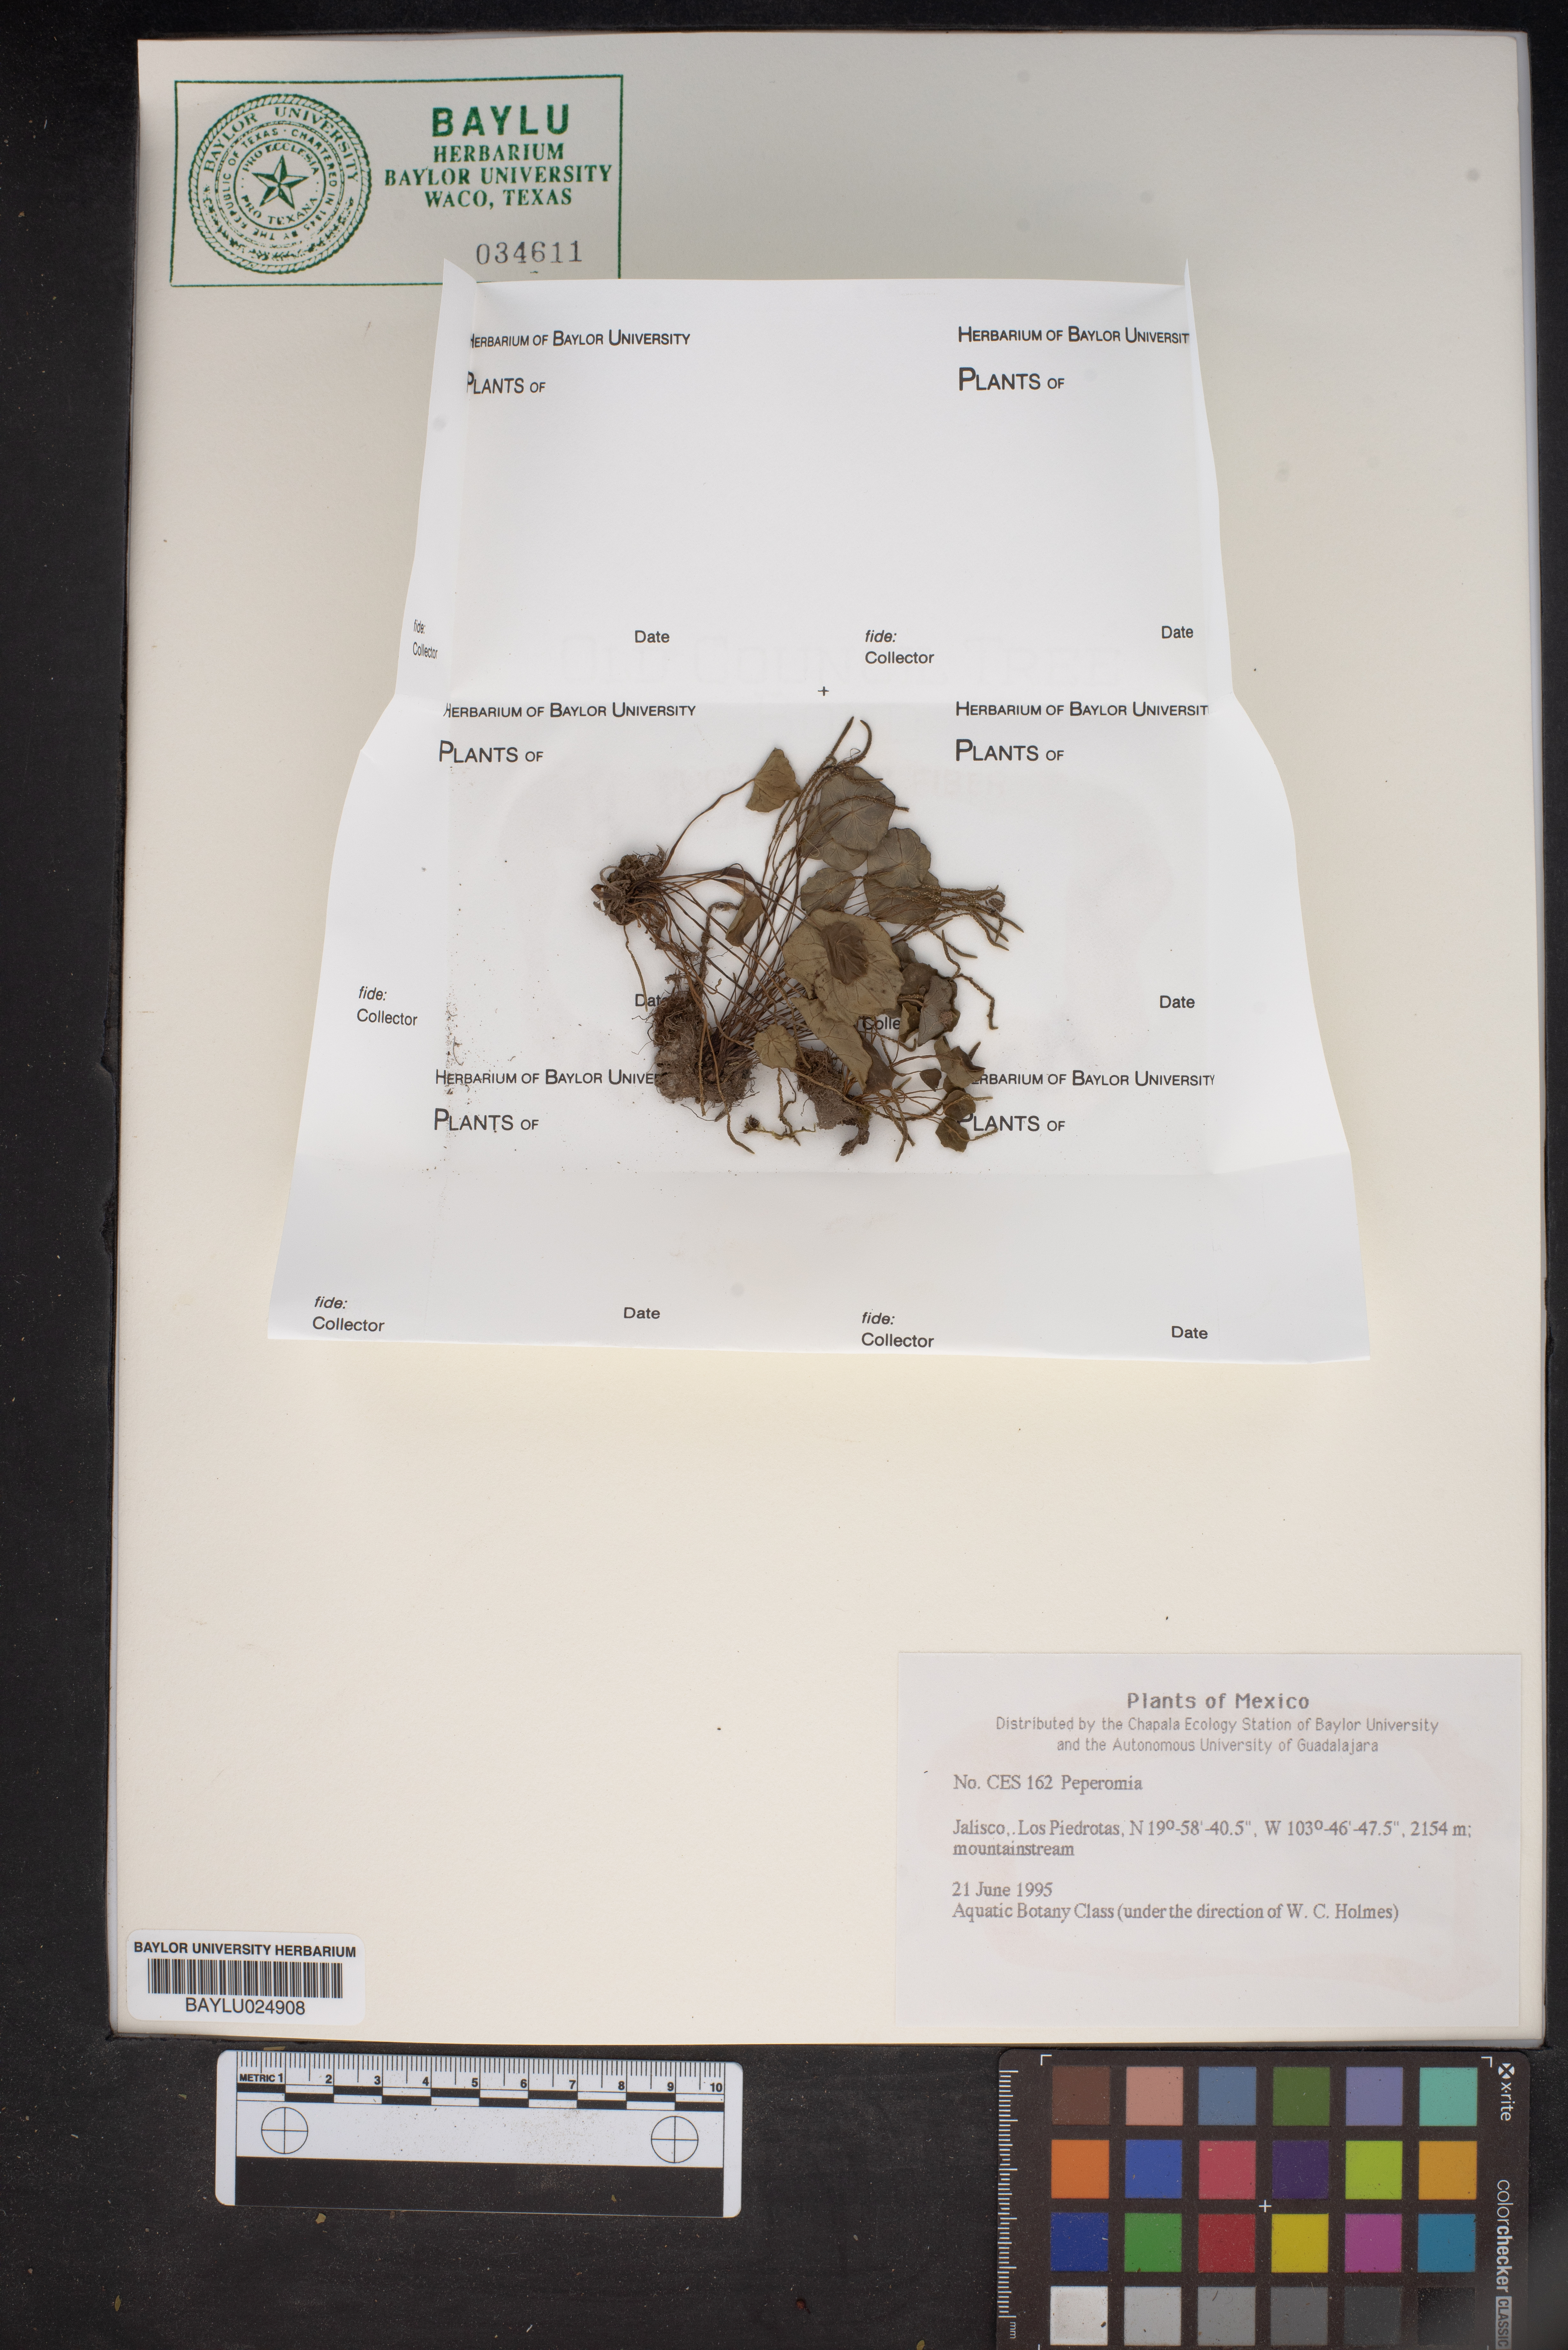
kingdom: Plantae
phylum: Tracheophyta
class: Magnoliopsida
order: Piperales
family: Piperaceae
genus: Peperomia
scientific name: Peperomia
